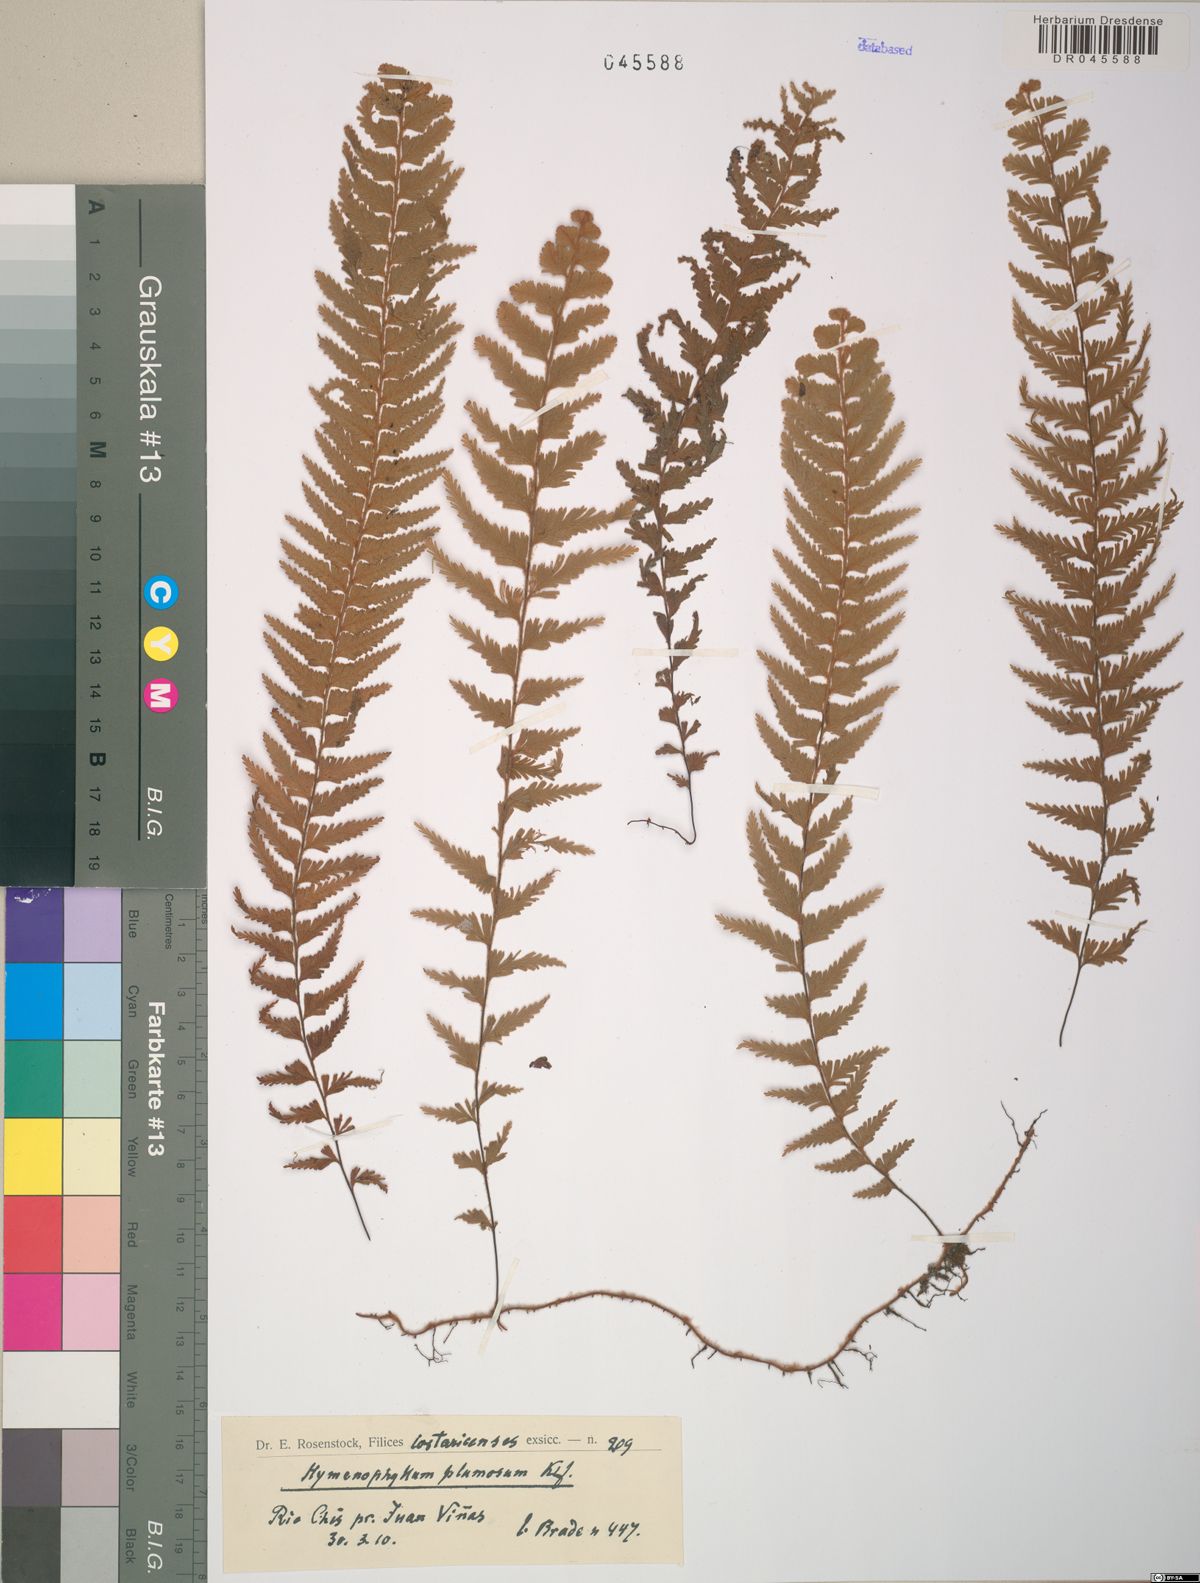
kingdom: Plantae
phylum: Tracheophyta
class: Polypodiopsida
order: Hymenophyllales
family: Hymenophyllaceae
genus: Hymenophyllum
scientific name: Hymenophyllum plumosum
